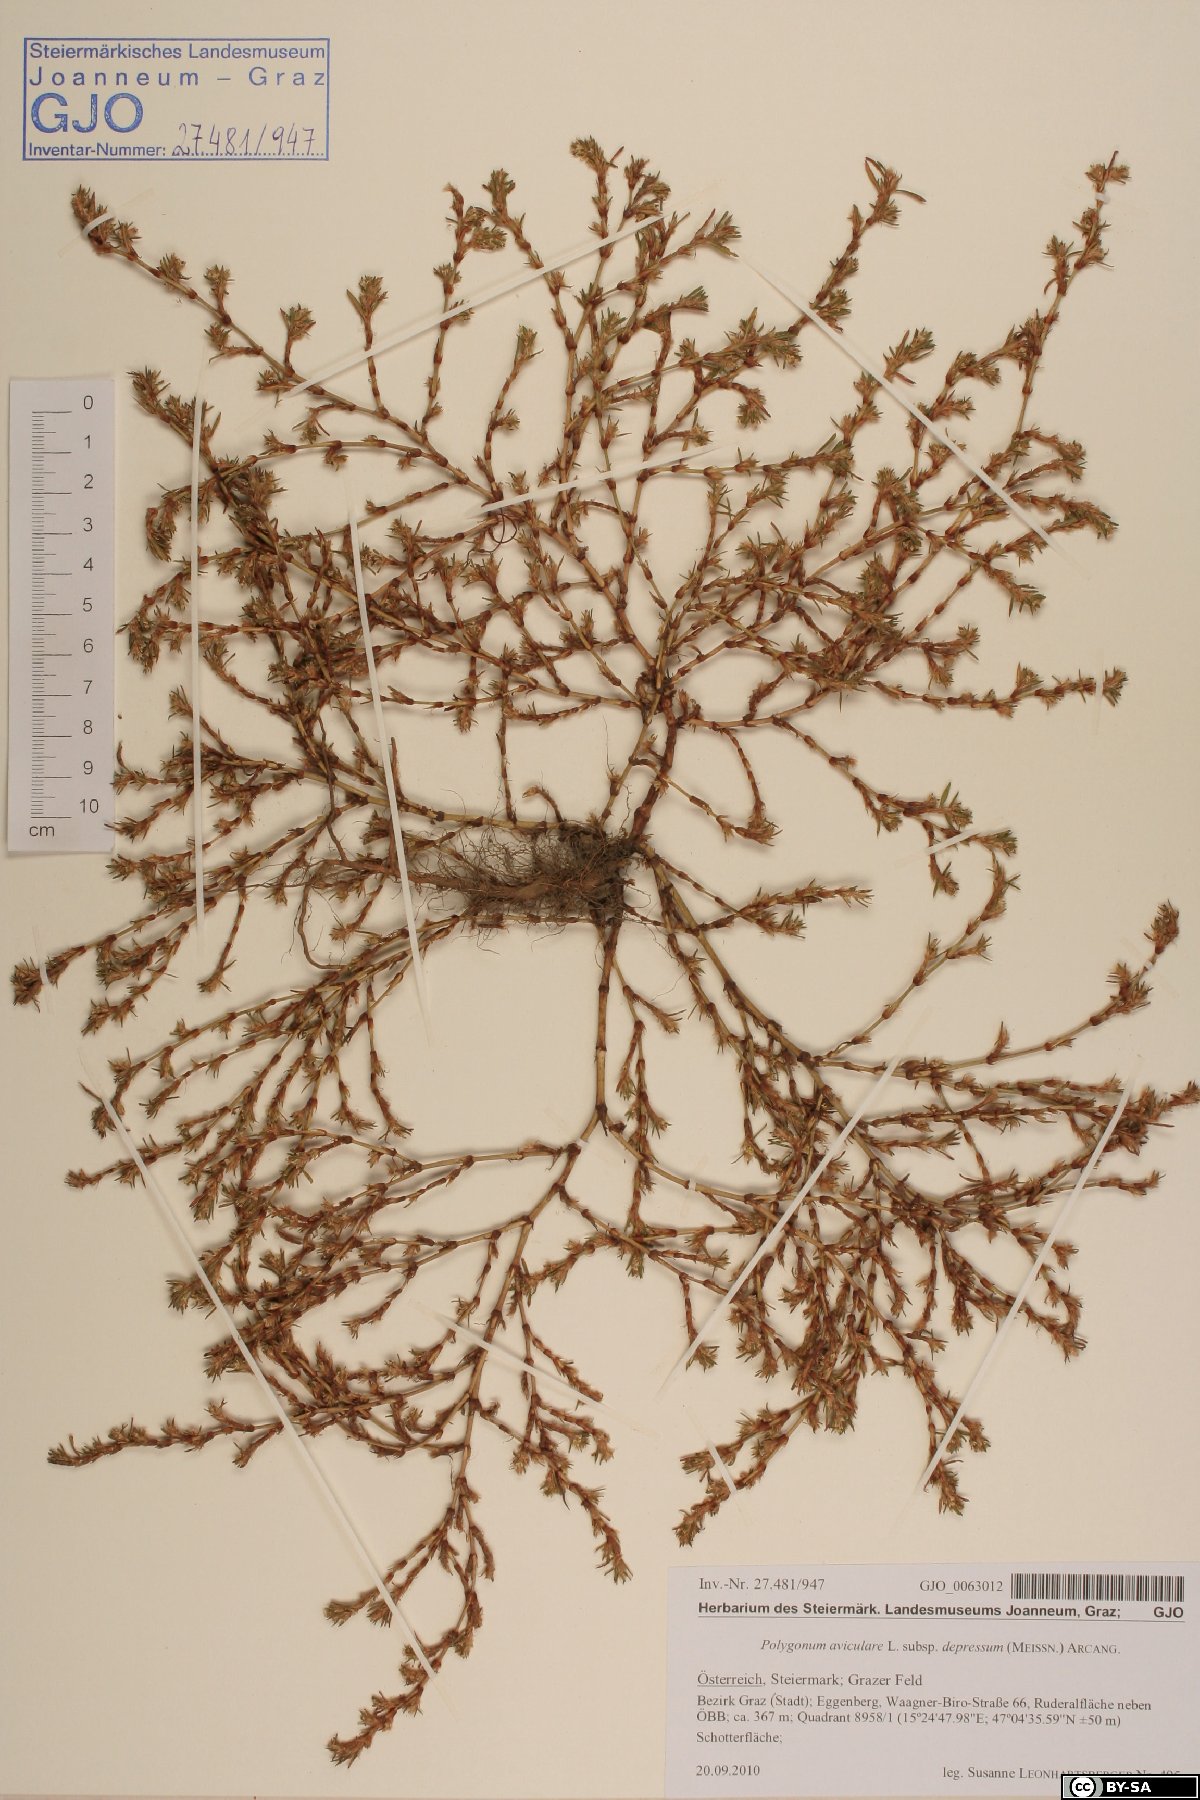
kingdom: Plantae
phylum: Tracheophyta
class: Magnoliopsida
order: Caryophyllales
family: Polygonaceae
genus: Polygonum
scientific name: Polygonum arenastrum
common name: Equal-leaved knotgrass
